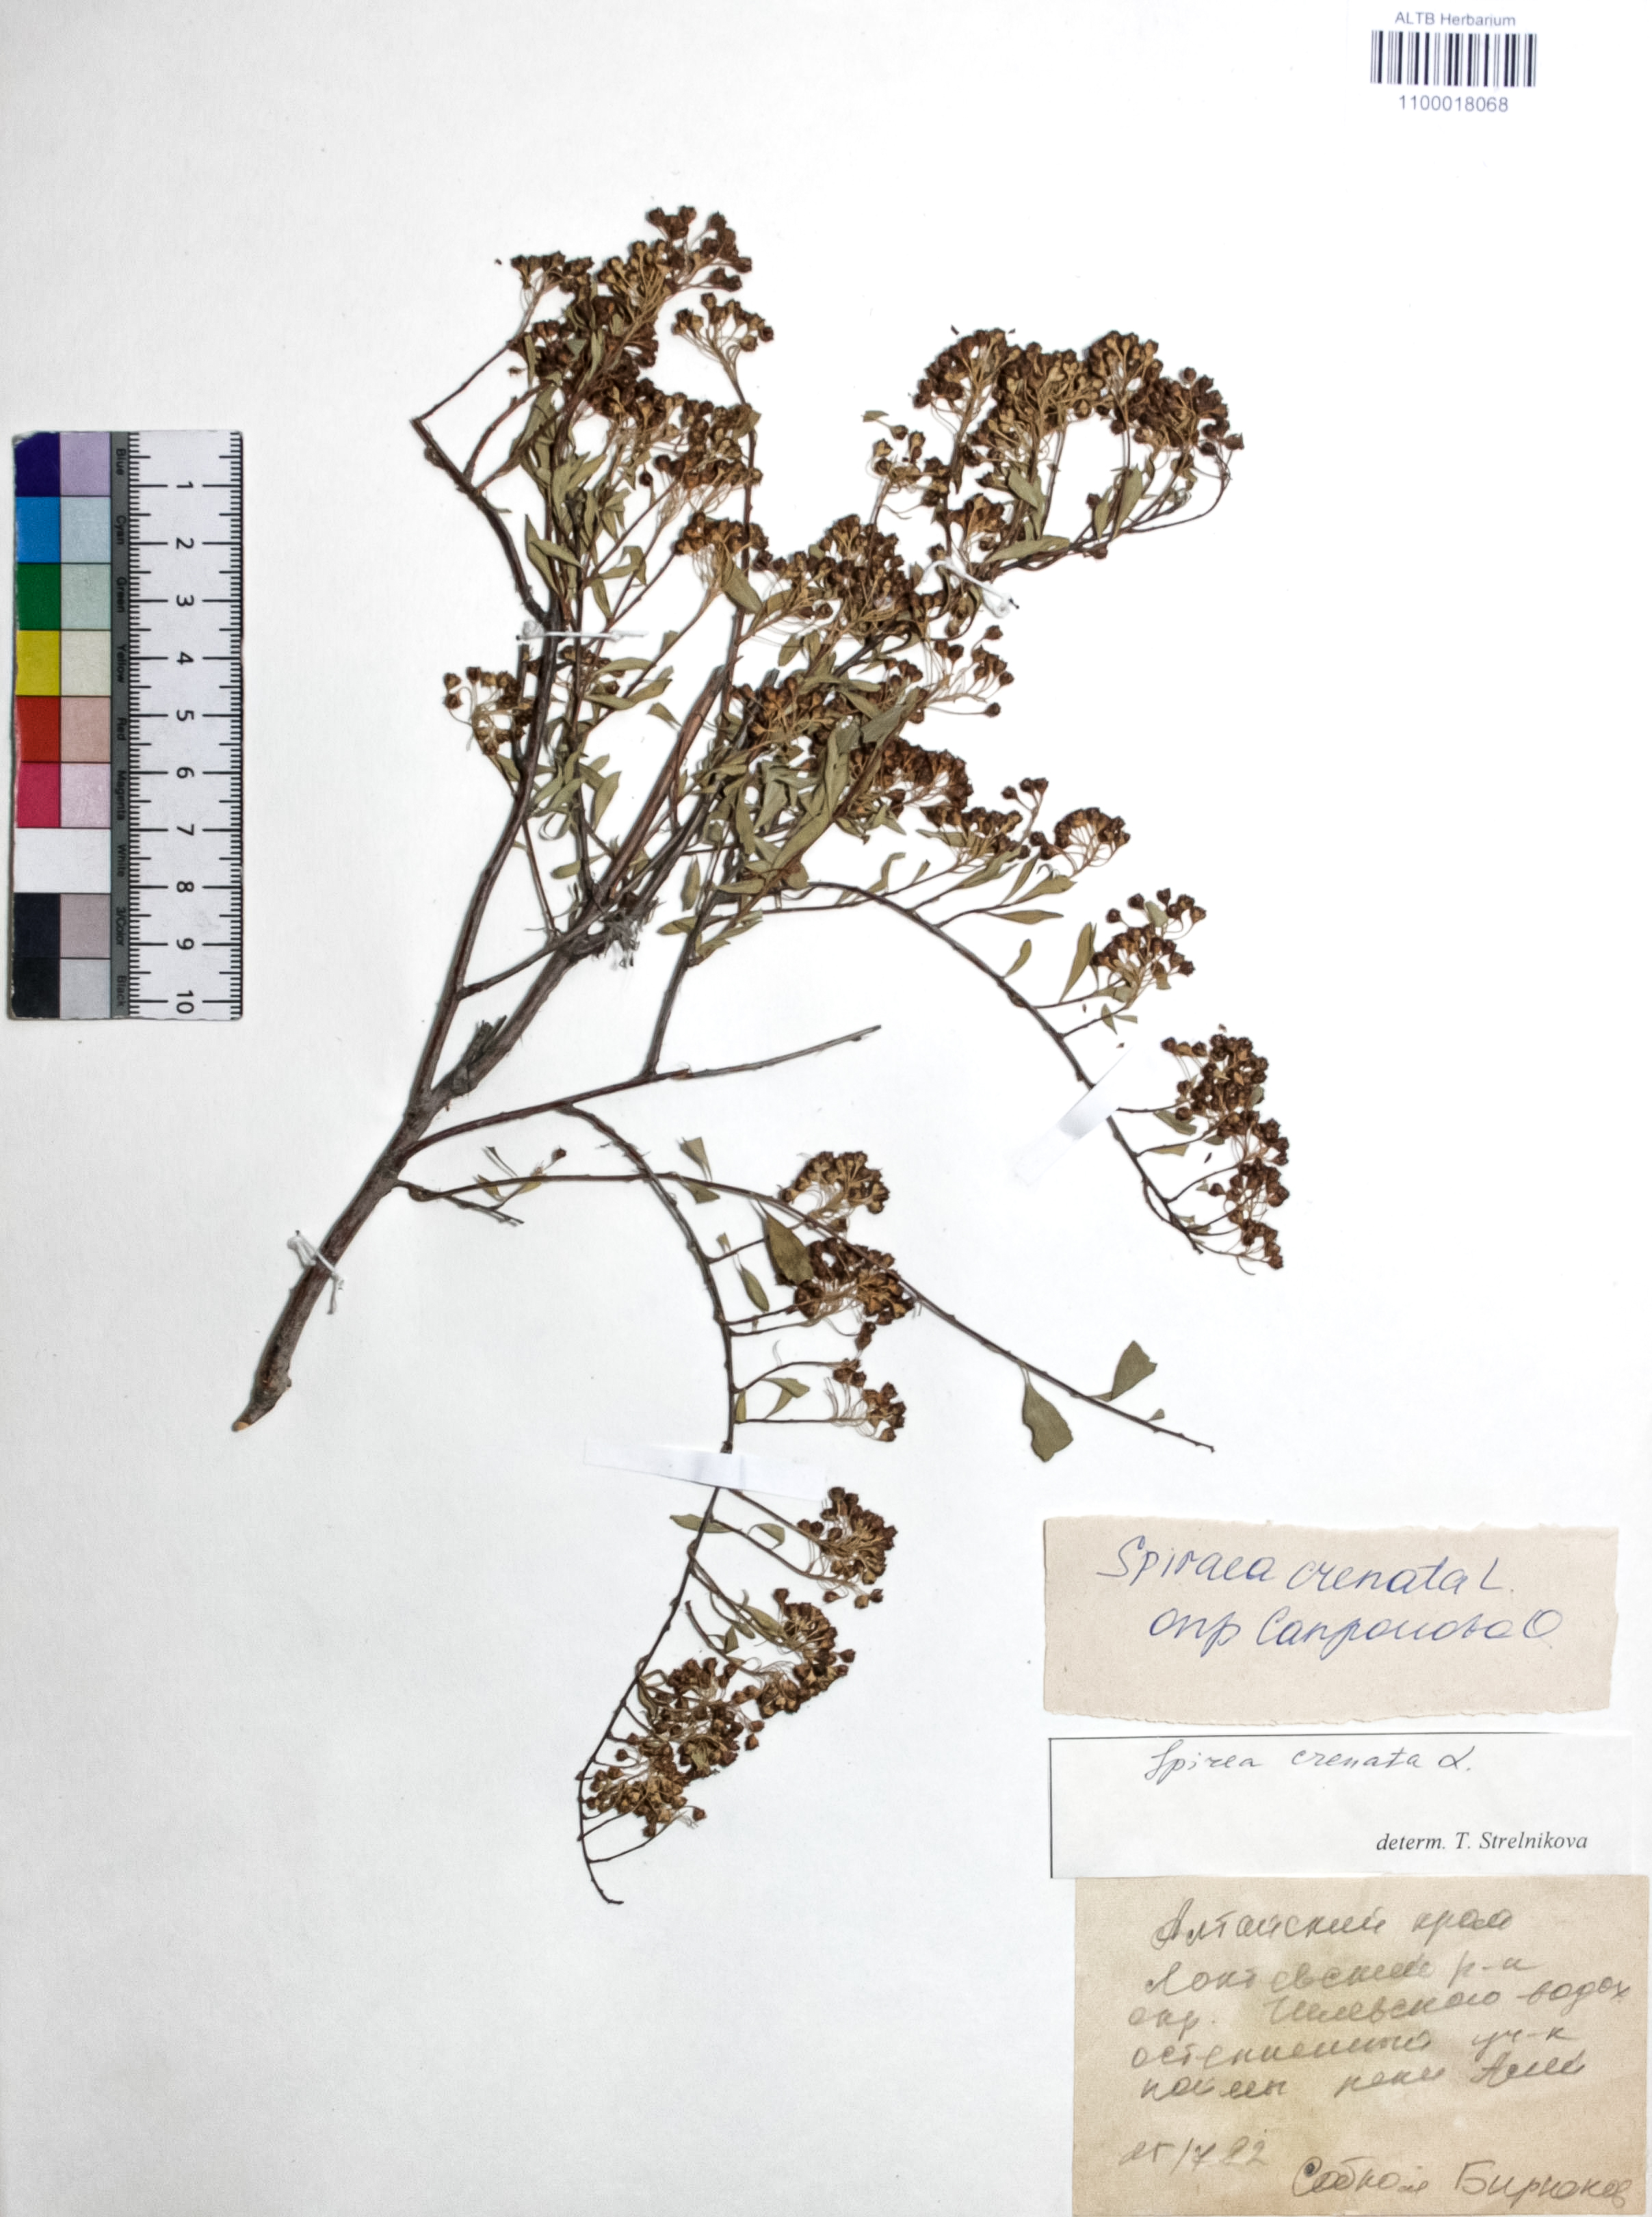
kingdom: Plantae
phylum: Tracheophyta
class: Magnoliopsida
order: Rosales
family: Rosaceae
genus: Spiraea
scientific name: Spiraea crenata
